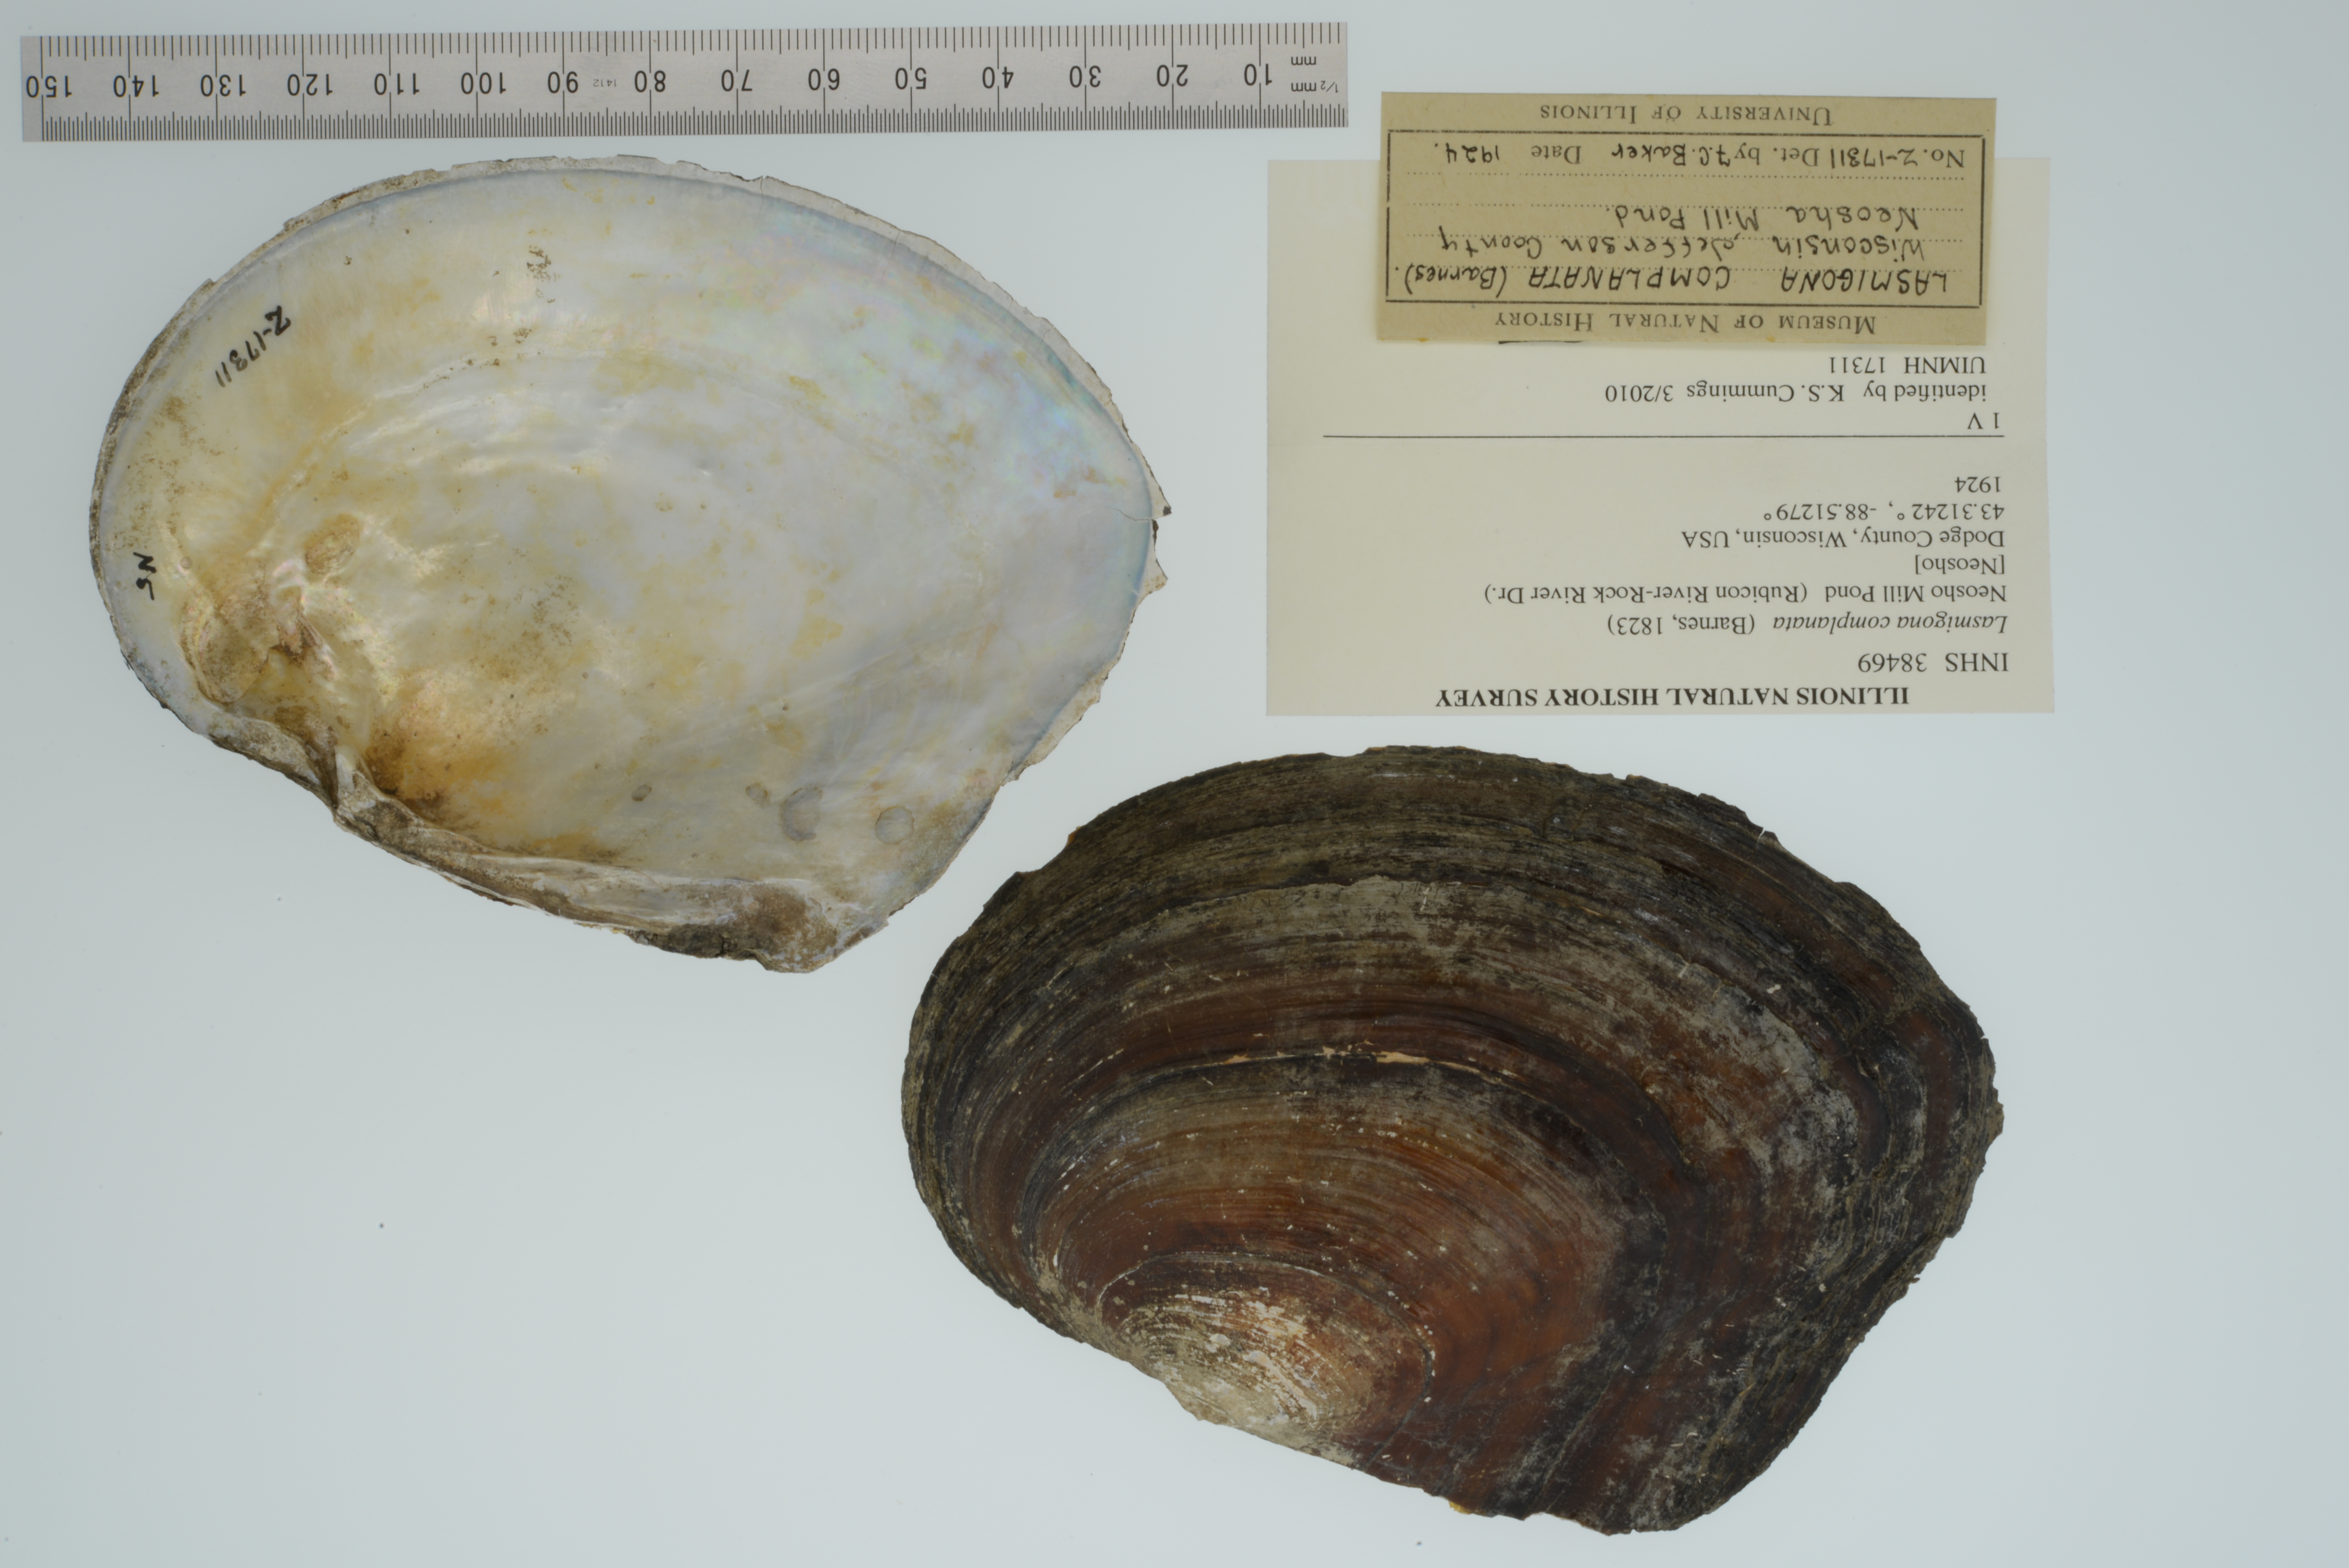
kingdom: Animalia
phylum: Mollusca
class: Bivalvia
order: Unionida
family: Unionidae
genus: Lasmigona
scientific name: Lasmigona complanata
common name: White heelsplitter
